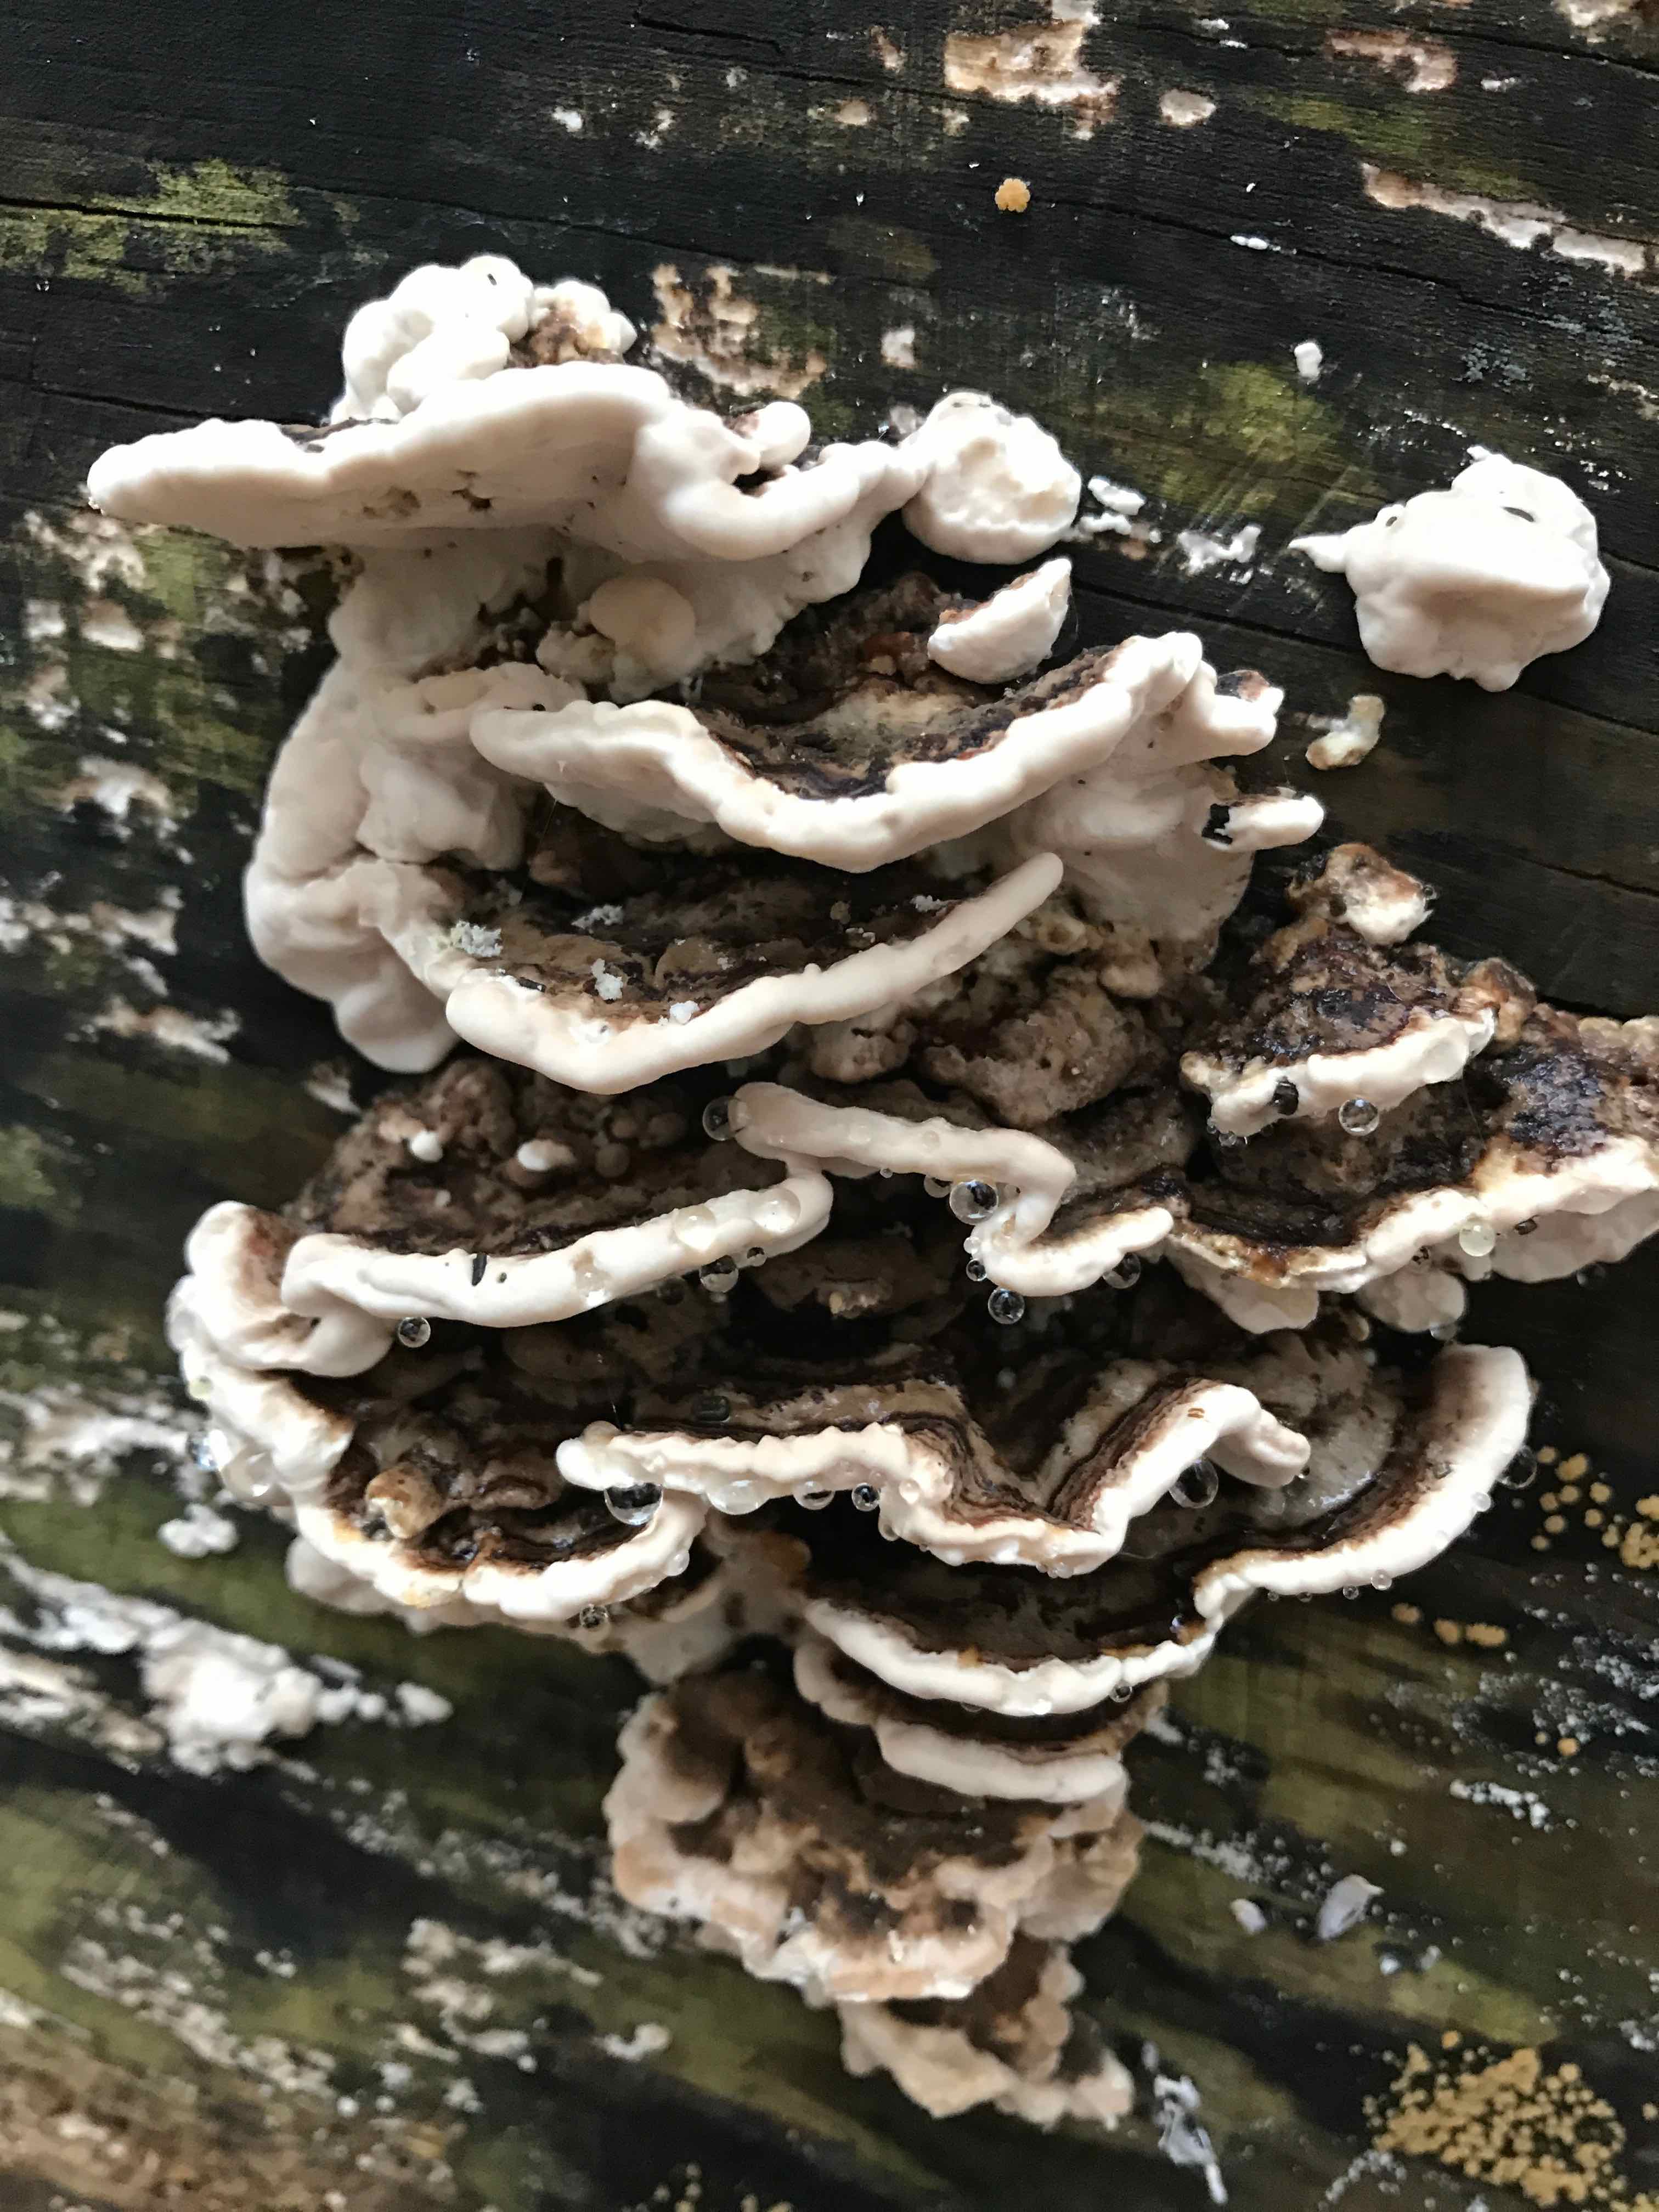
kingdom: Fungi
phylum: Basidiomycota
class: Agaricomycetes
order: Polyporales
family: Polyporaceae
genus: Trametes
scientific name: Trametes versicolor
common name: broget læderporesvamp
